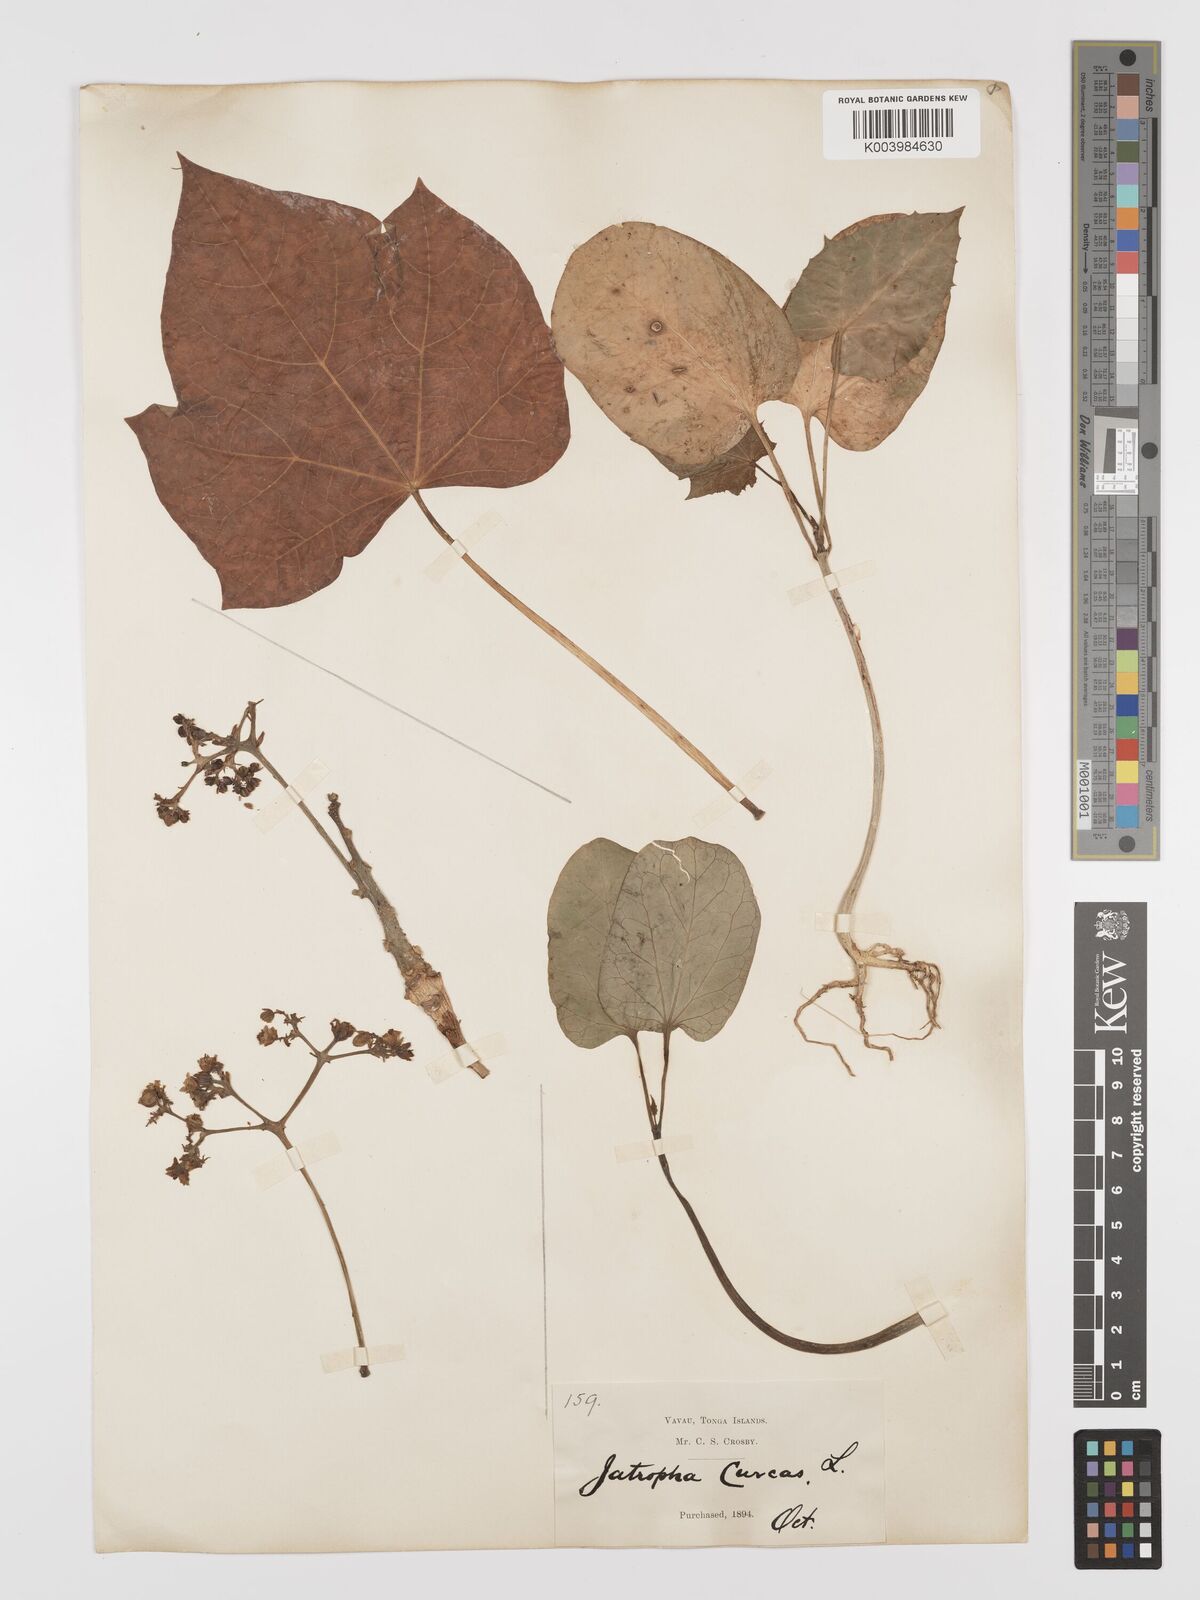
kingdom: Plantae
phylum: Tracheophyta
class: Magnoliopsida
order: Malpighiales
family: Euphorbiaceae
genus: Jatropha
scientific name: Jatropha curcas
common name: Barbados nut
